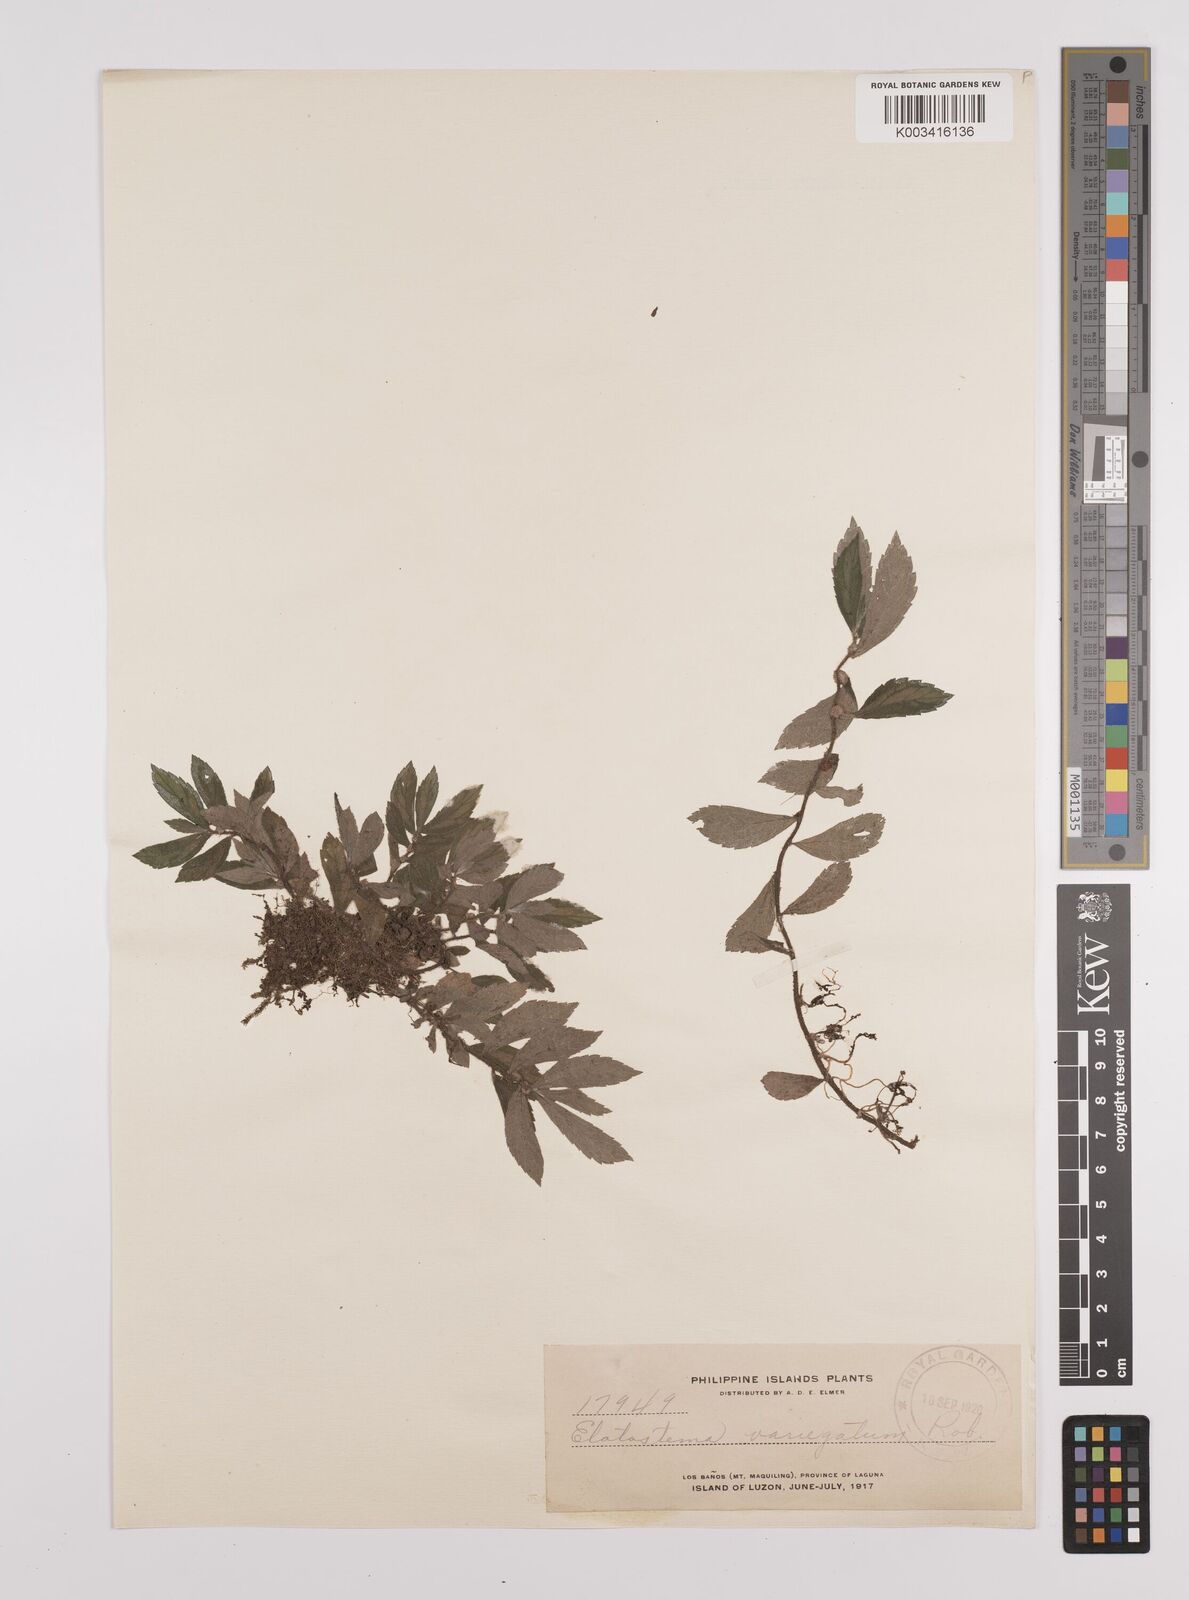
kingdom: Plantae
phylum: Tracheophyta
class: Magnoliopsida
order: Rosales
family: Urticaceae
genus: Elatostema
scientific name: Elatostema variegatum
